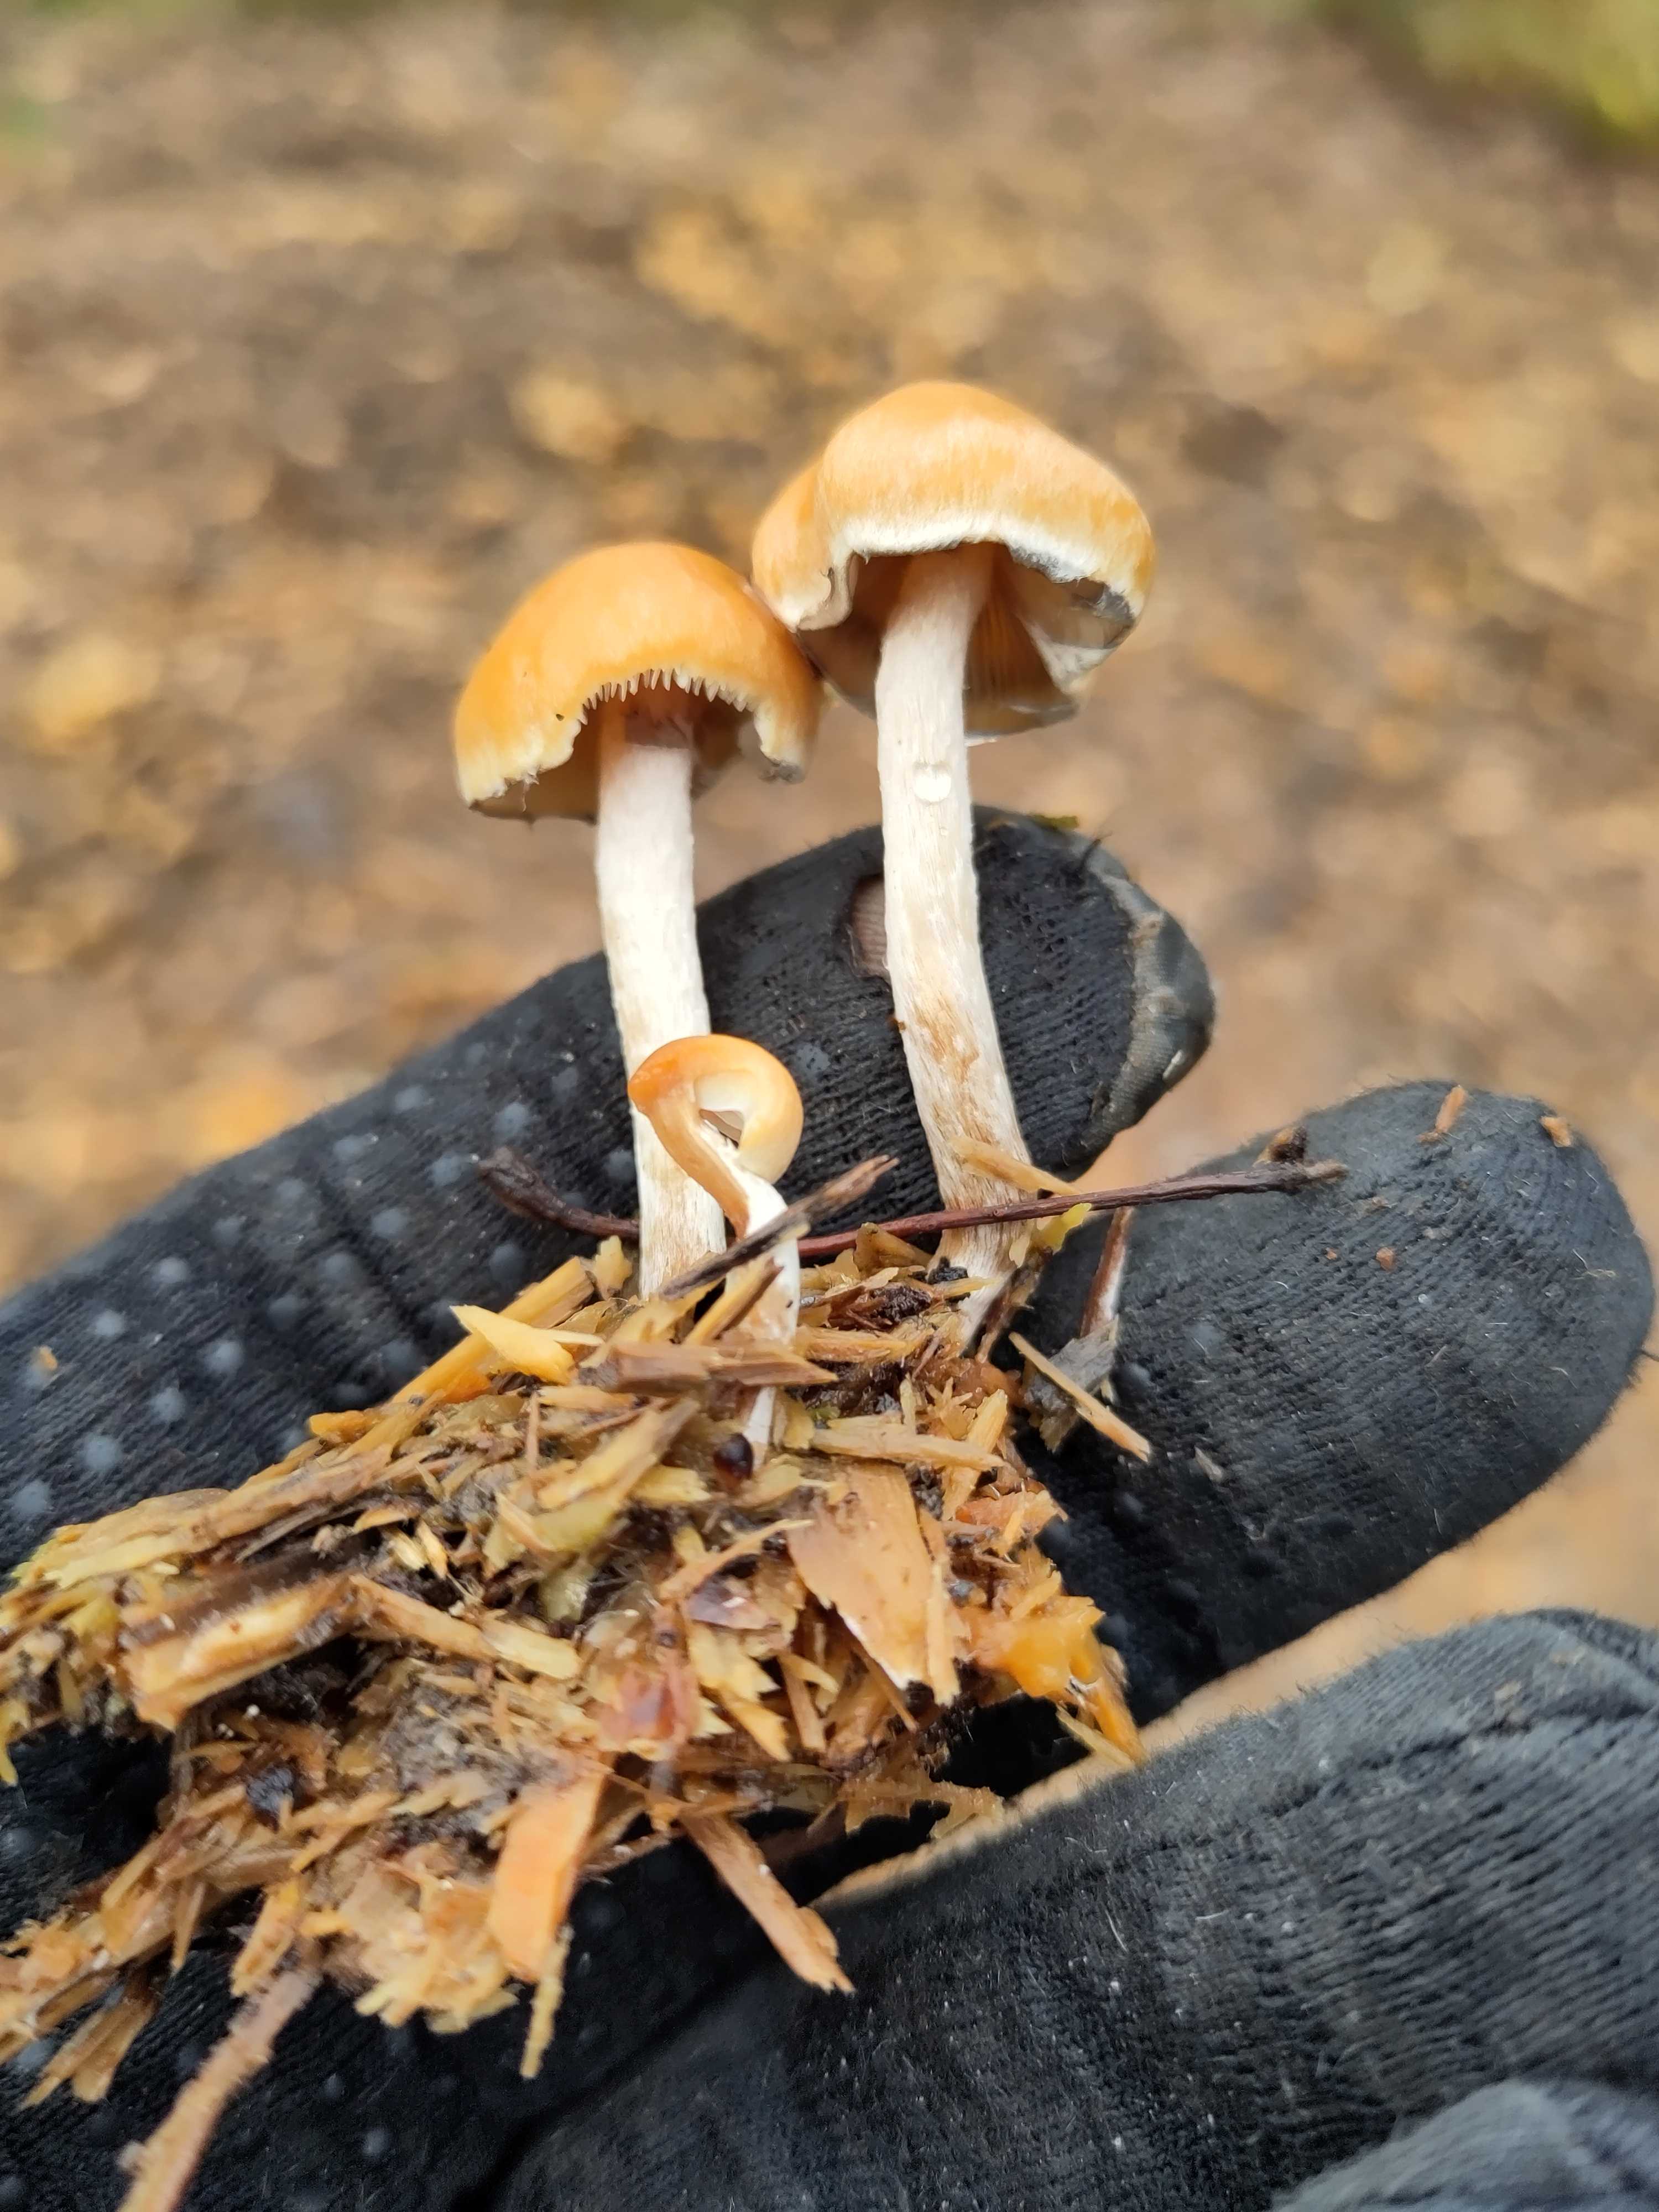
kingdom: Fungi
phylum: Basidiomycota
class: Agaricomycetes
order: Agaricales
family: Strophariaceae
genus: Hypholoma
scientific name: Hypholoma marginatum
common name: enlig svovlhat
